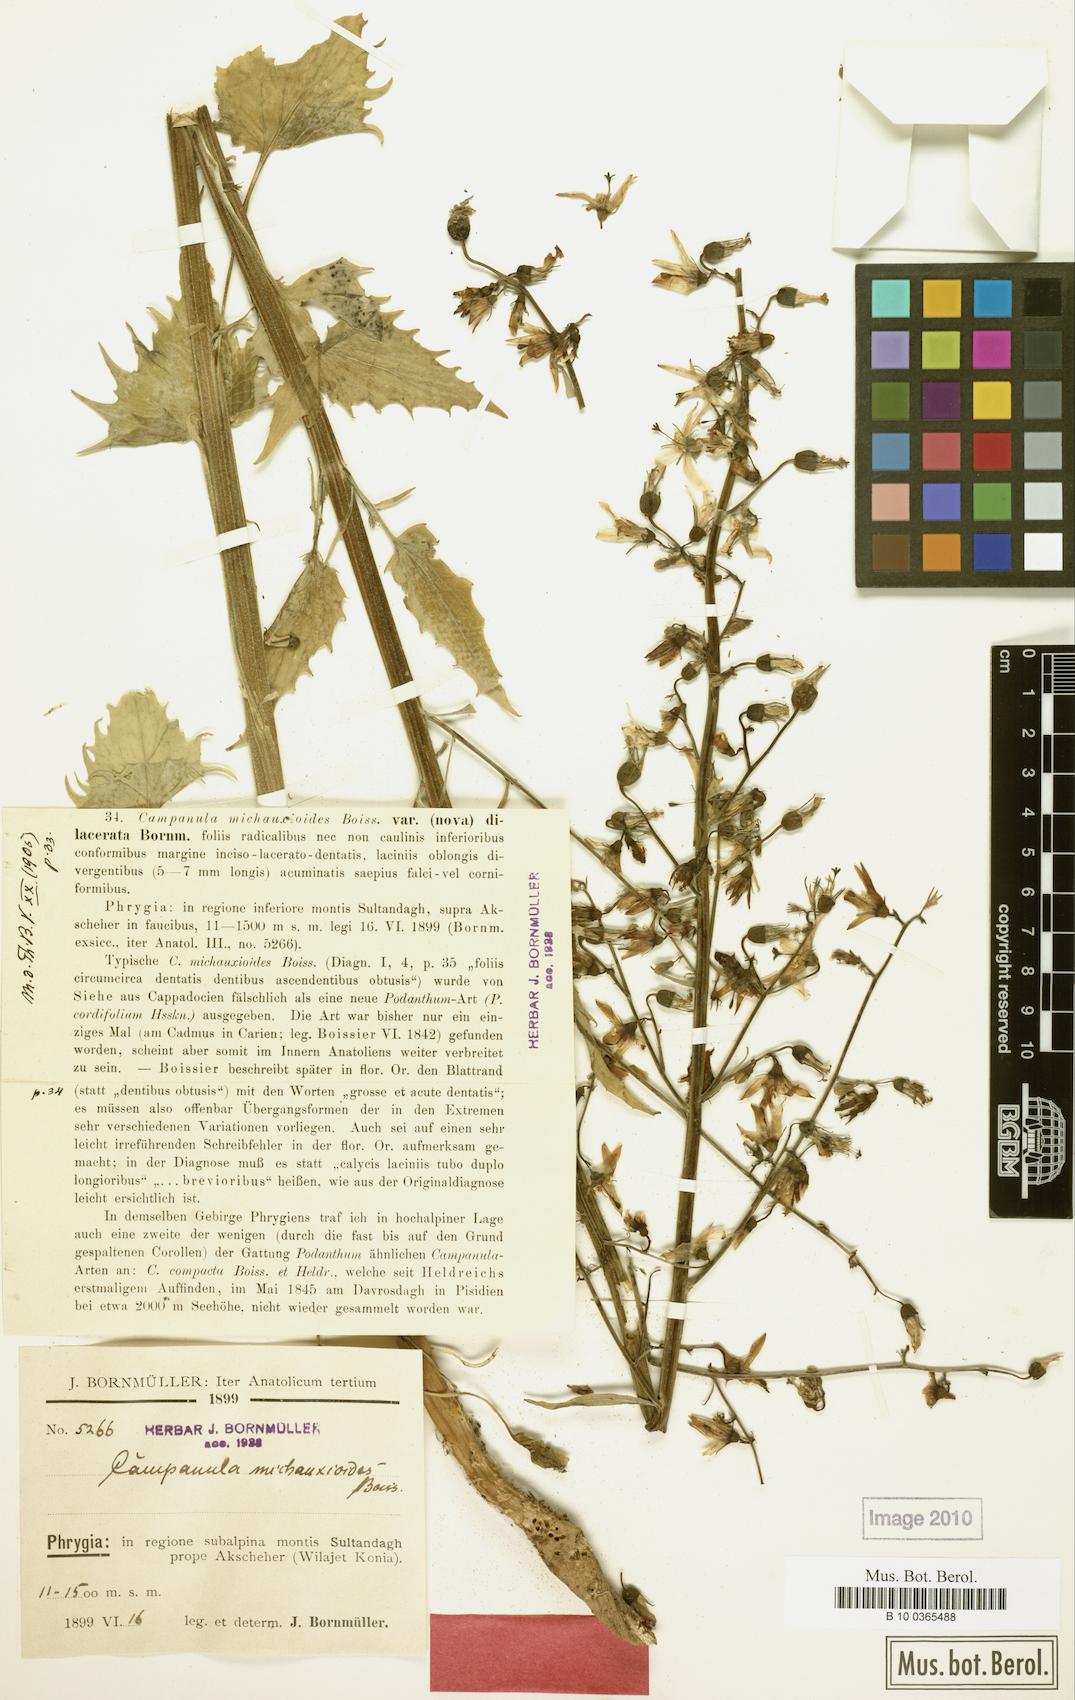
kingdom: Plantae
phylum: Tracheophyta
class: Magnoliopsida
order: Asterales
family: Campanulaceae
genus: Asyneuma
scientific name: Asyneuma michauxioides
